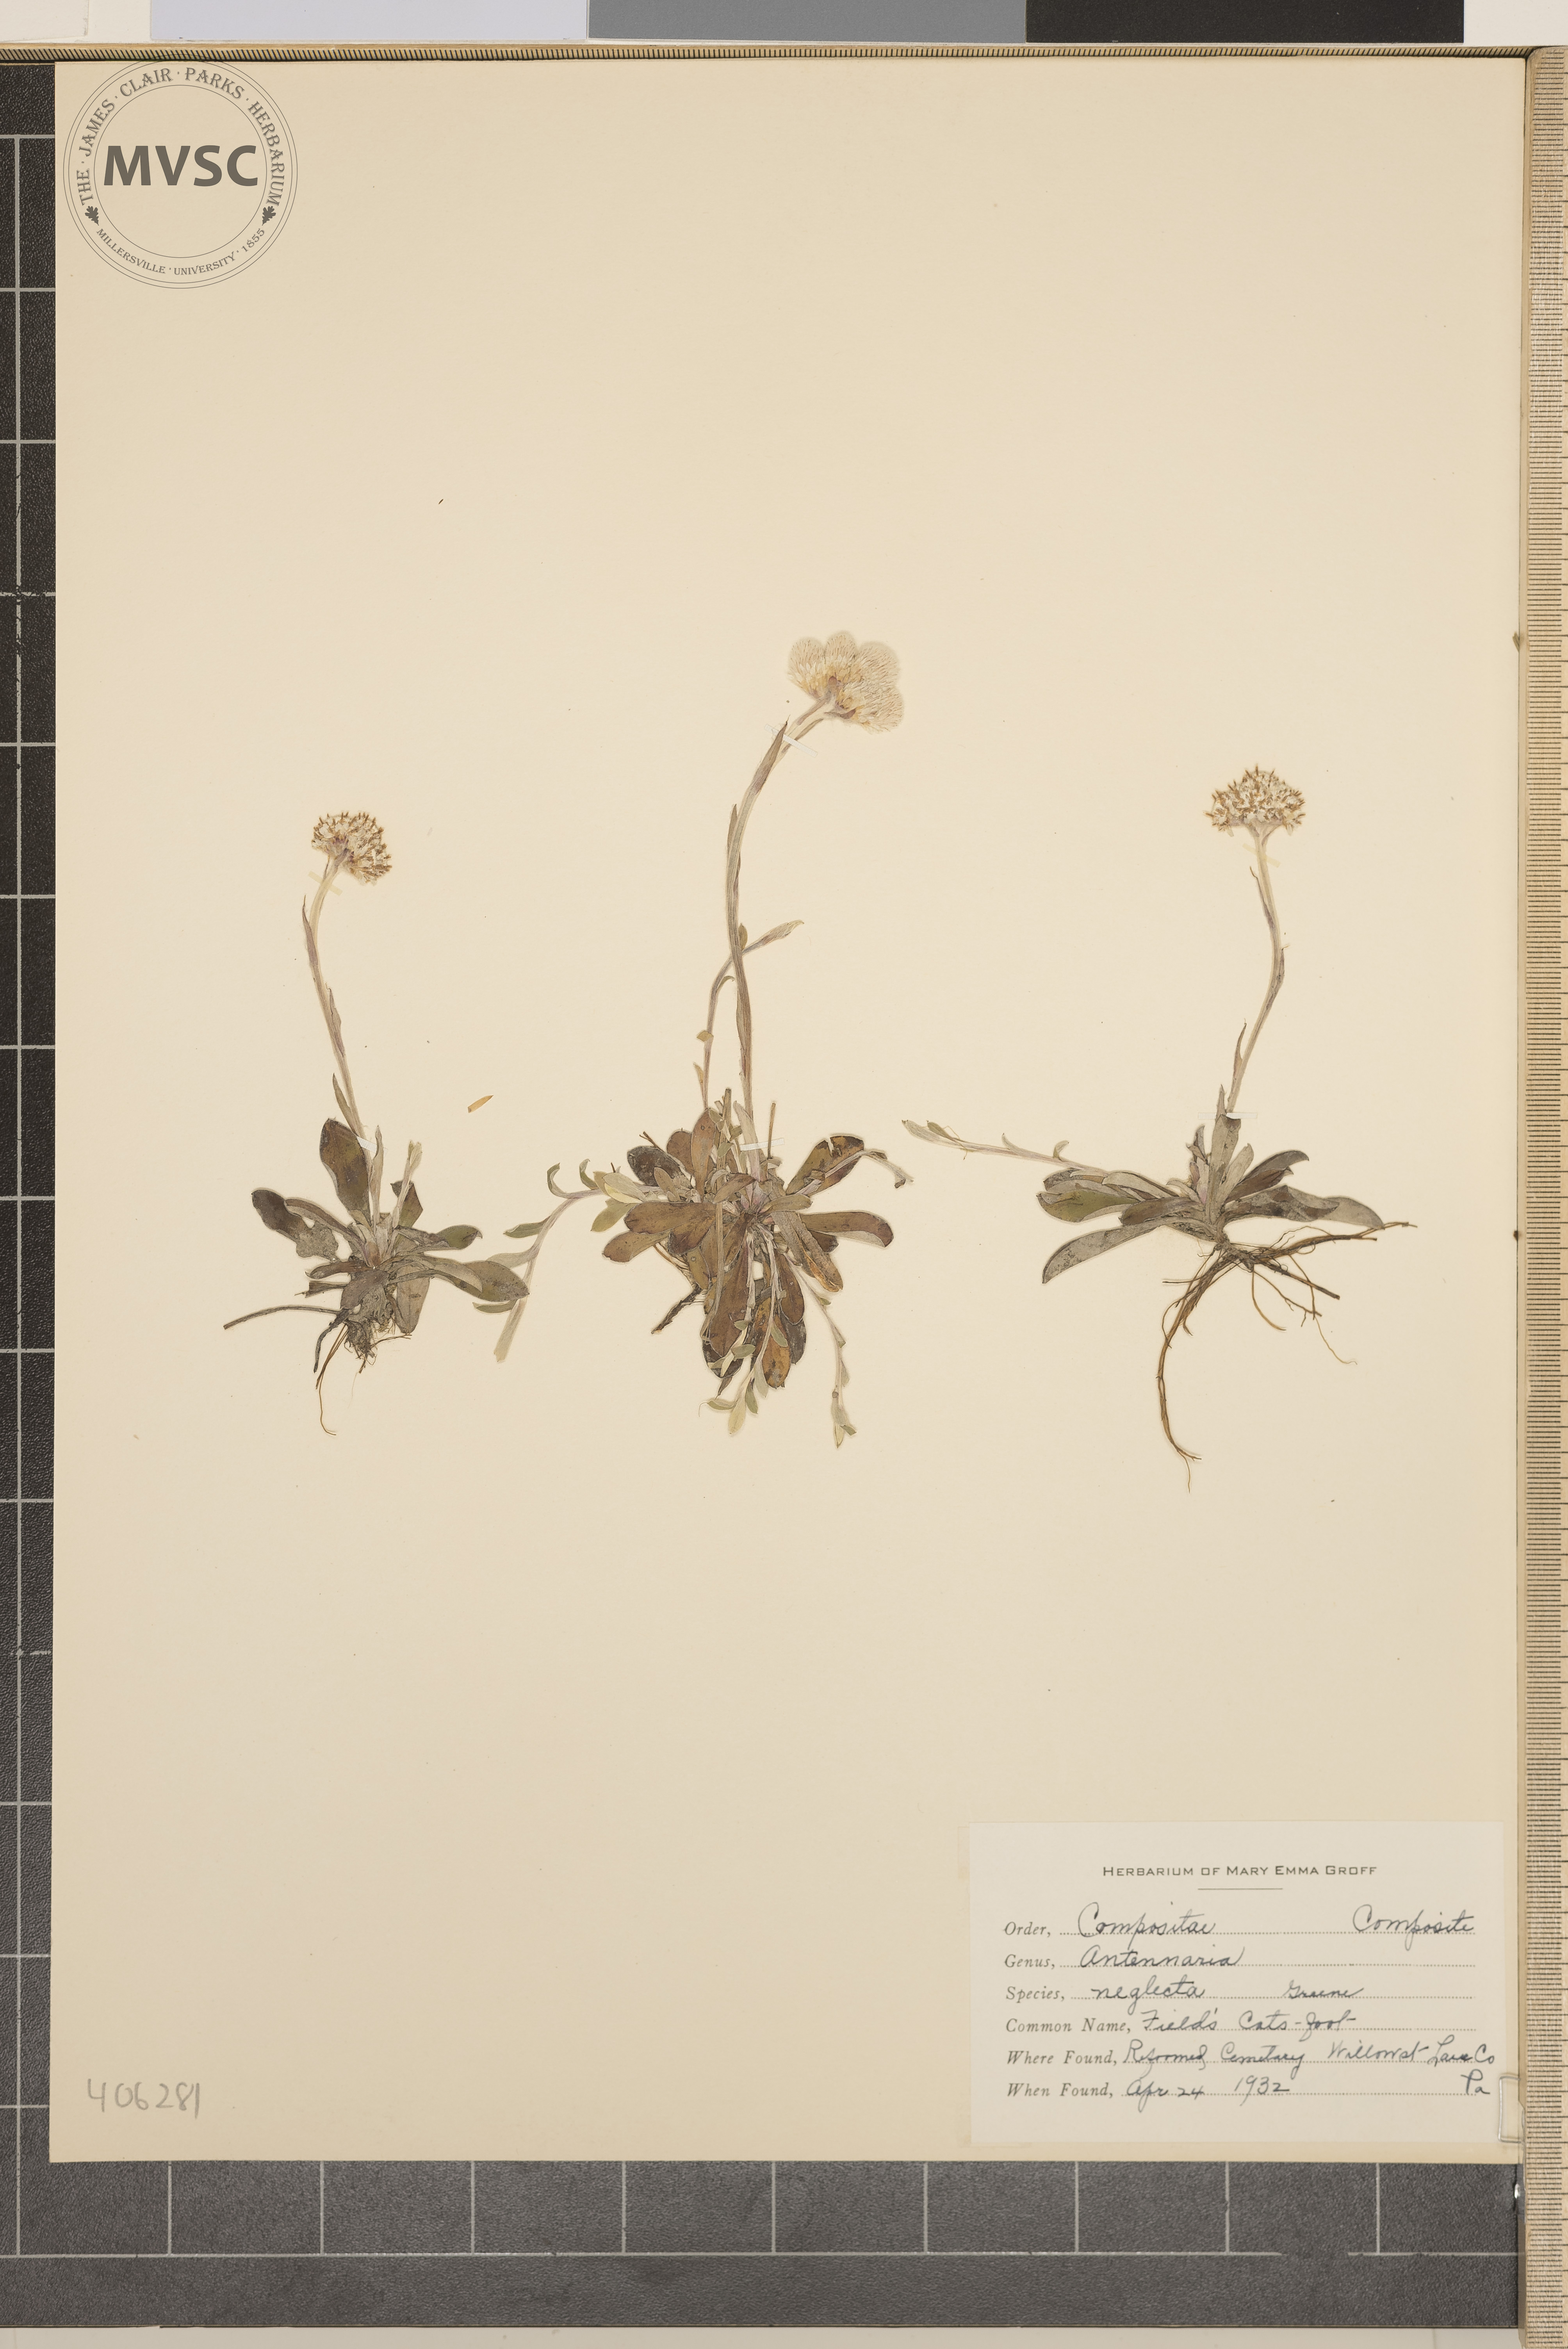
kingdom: Plantae
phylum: Tracheophyta
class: Magnoliopsida
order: Asterales
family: Asteraceae
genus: Antennaria
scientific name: Antennaria neglecta
